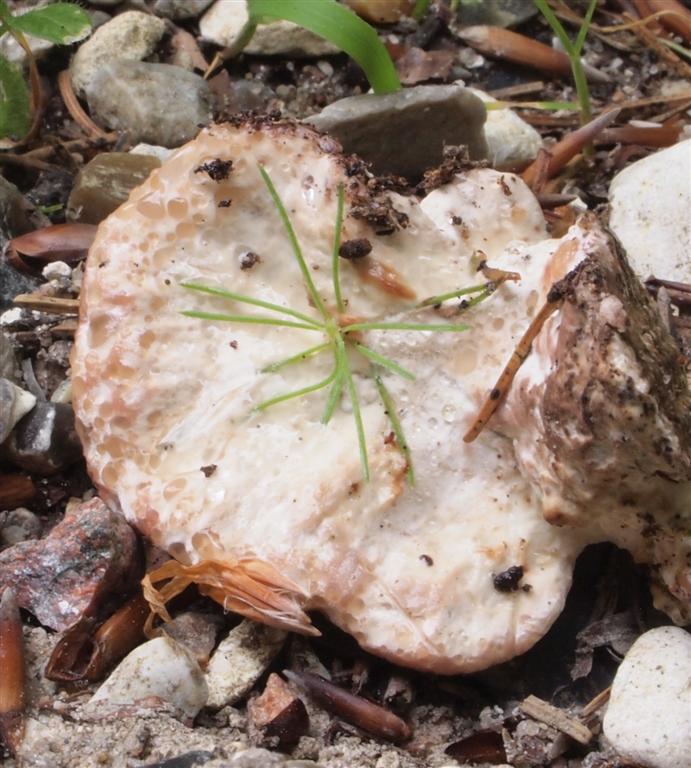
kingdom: Fungi
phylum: Basidiomycota
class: Agaricomycetes
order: Polyporales
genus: Calcipostia
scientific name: Calcipostia guttulata
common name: dråbe-kødporesvamp
